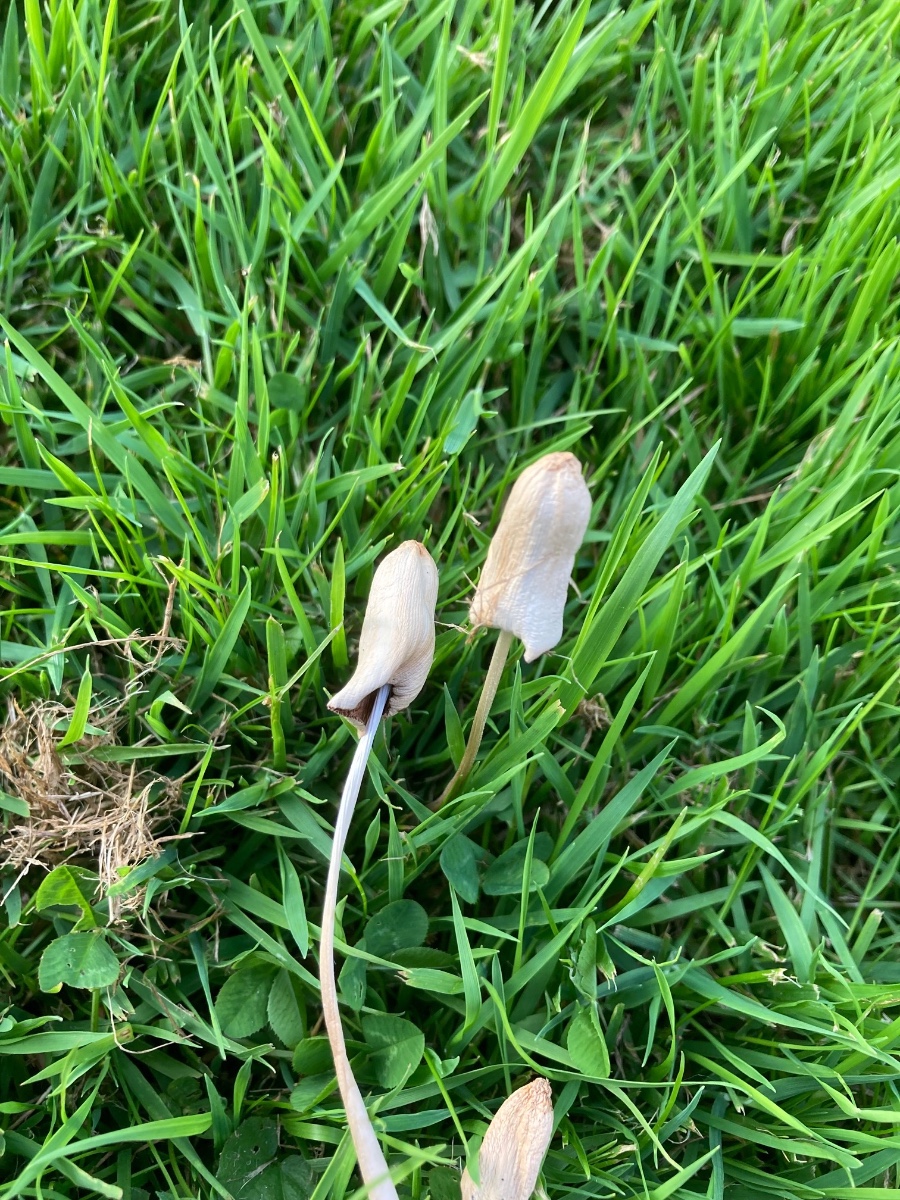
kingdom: Fungi
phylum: Basidiomycota
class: Agaricomycetes
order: Agaricales
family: Bolbitiaceae
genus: Conocybe
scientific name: Conocybe apala
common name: mælkehvid keglehat
